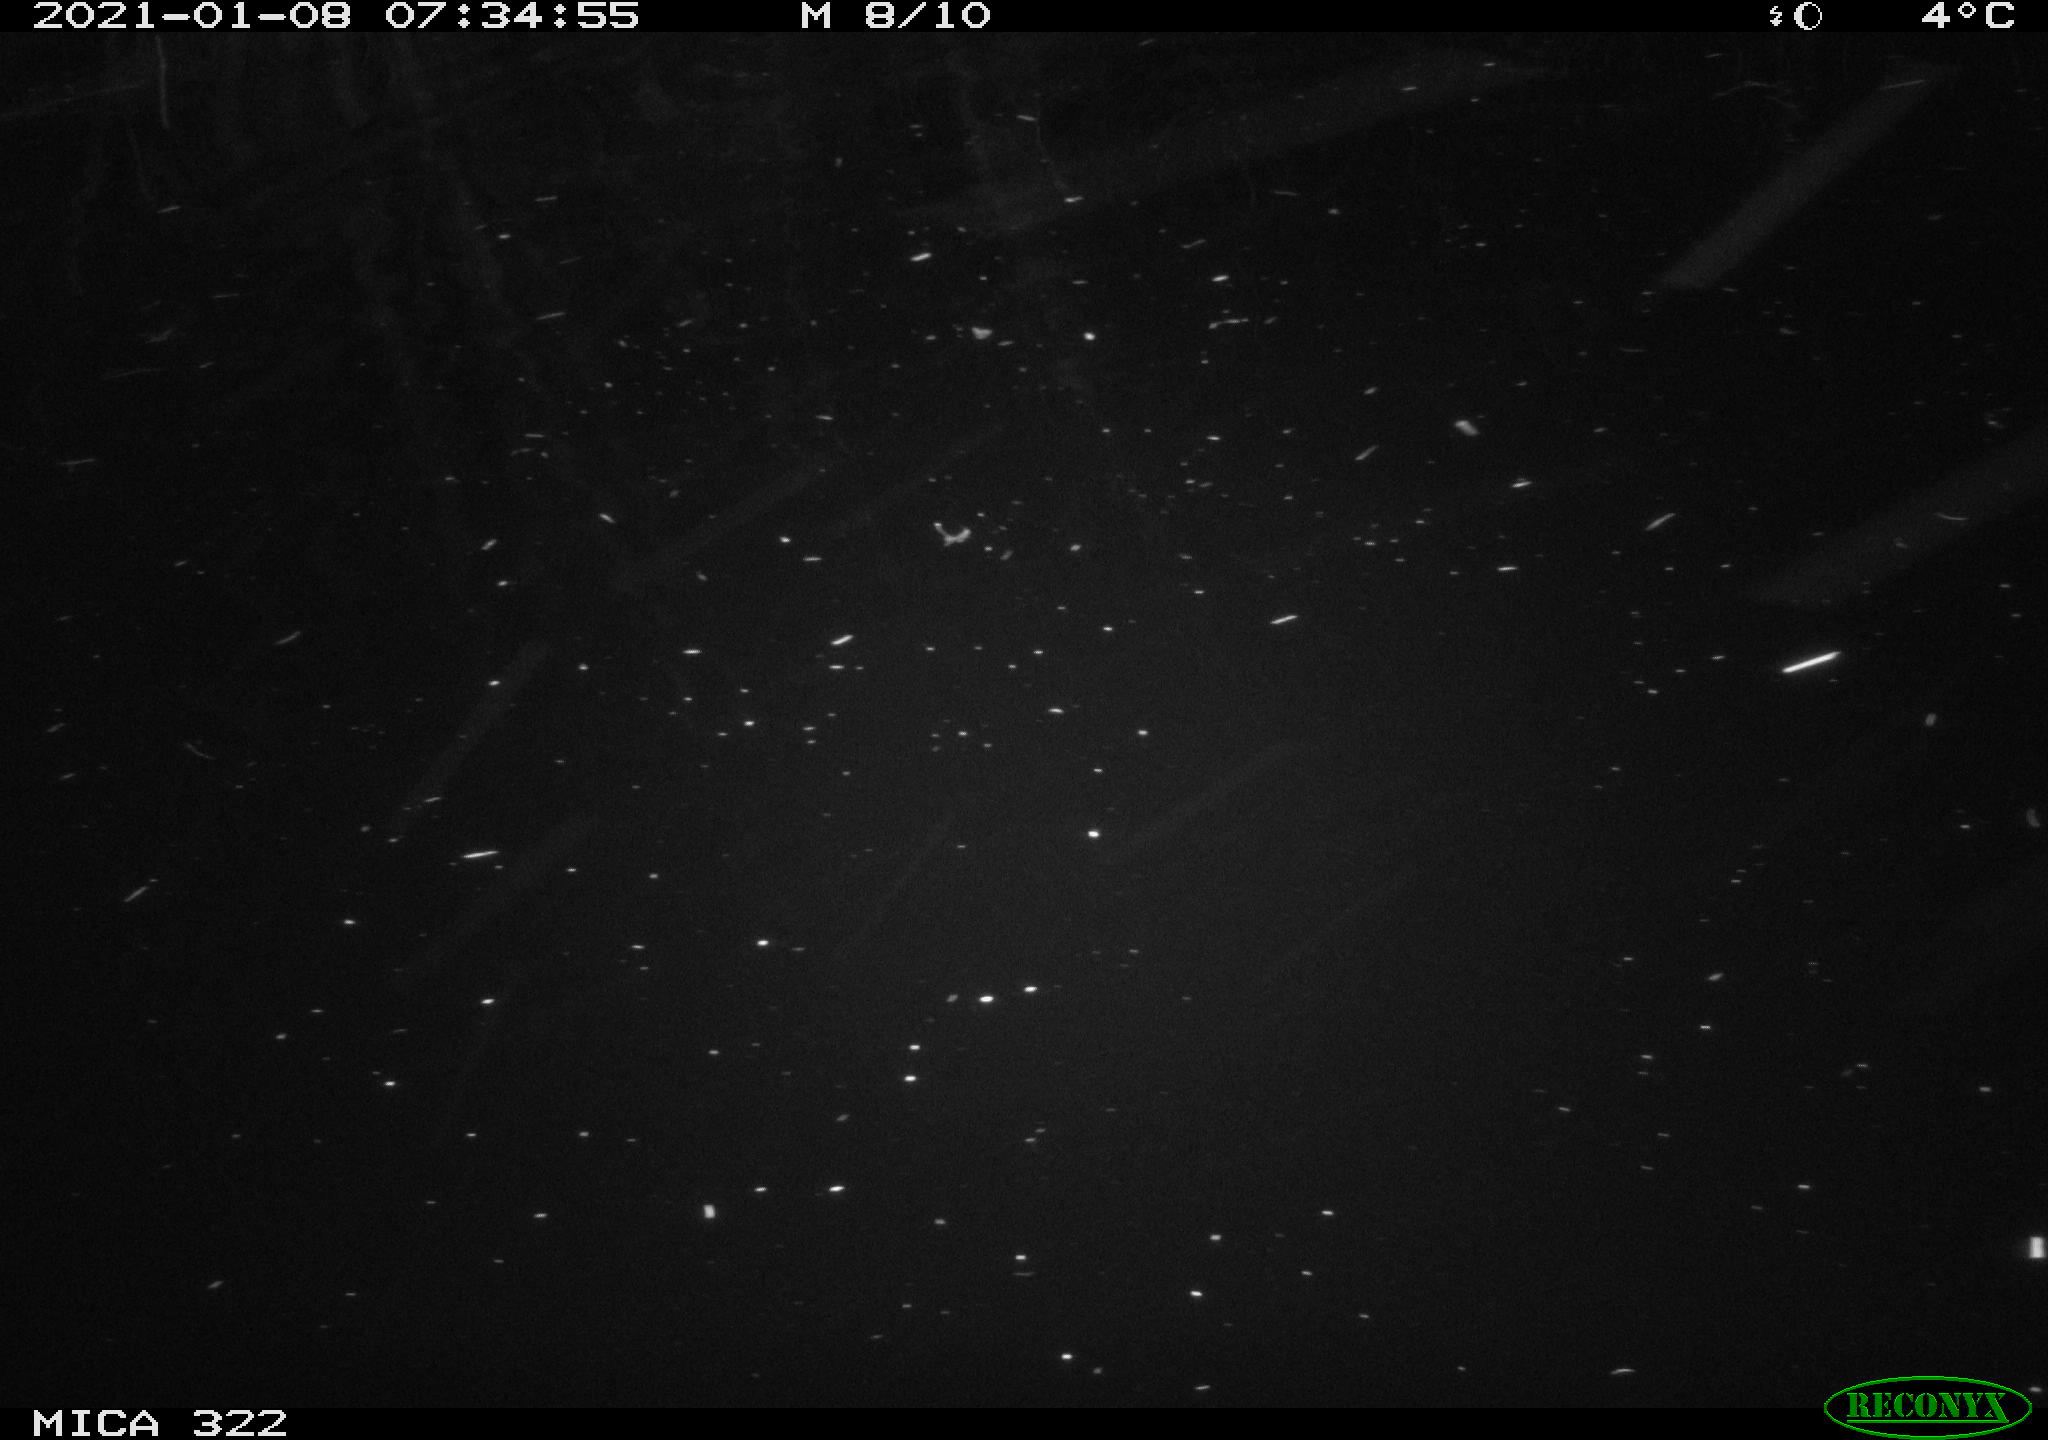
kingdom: Animalia
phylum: Chordata
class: Mammalia
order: Rodentia
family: Muridae
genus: Rattus
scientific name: Rattus norvegicus
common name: Brown rat
